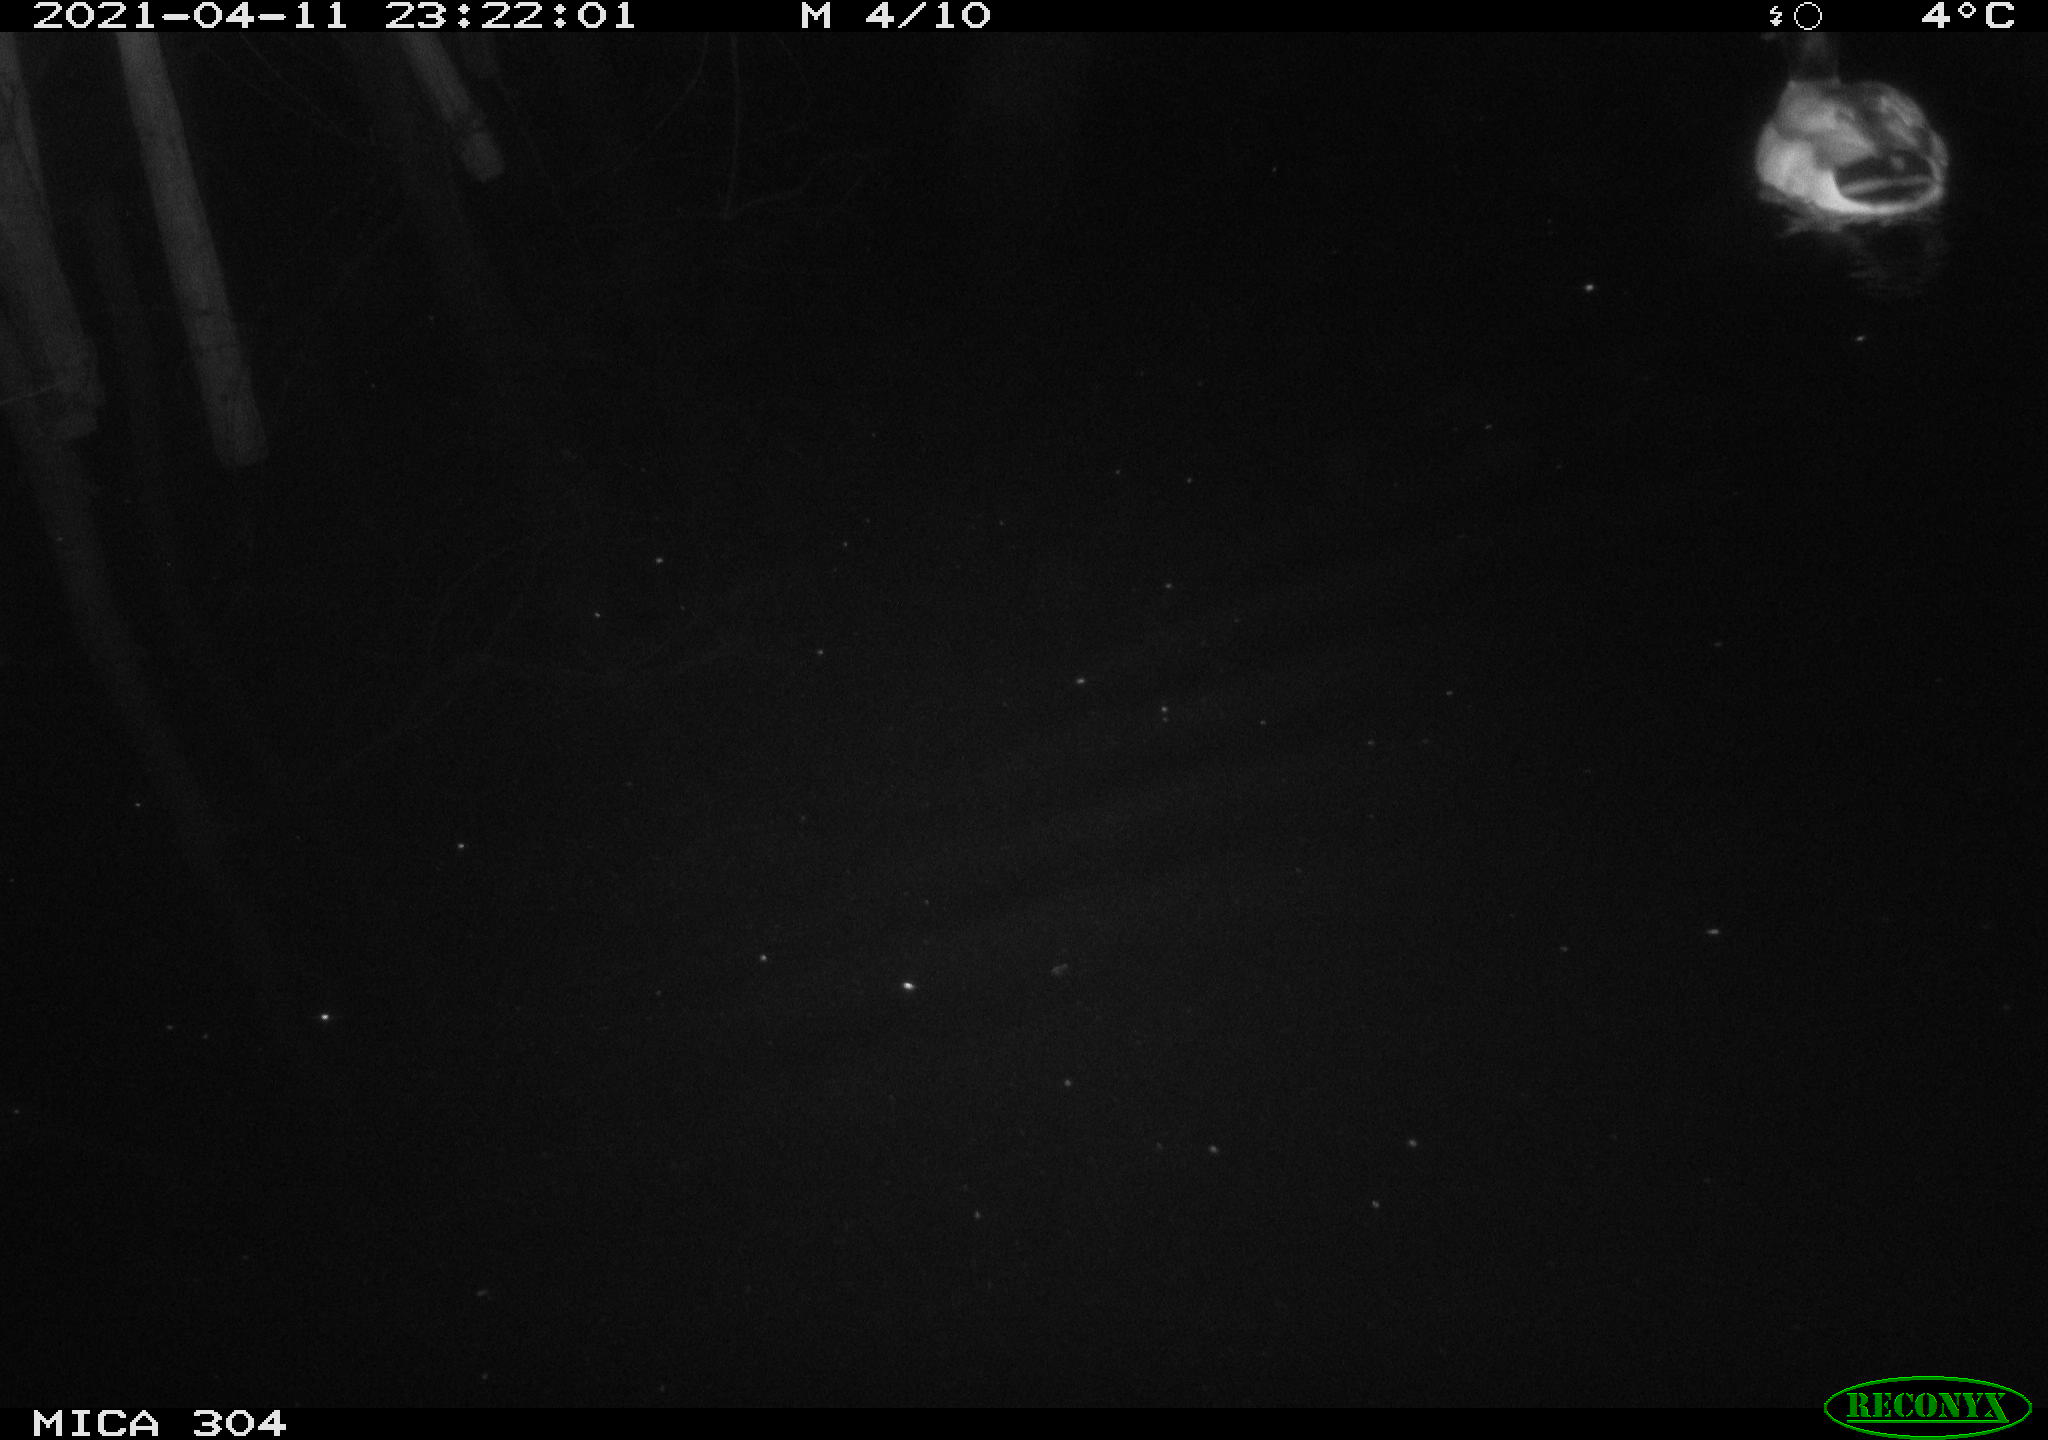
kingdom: Animalia
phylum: Chordata
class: Aves
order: Anseriformes
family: Anatidae
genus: Anas
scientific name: Anas
